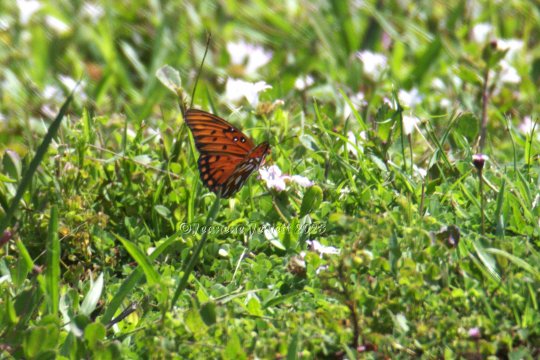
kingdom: Animalia
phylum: Arthropoda
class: Insecta
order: Lepidoptera
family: Nymphalidae
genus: Dione
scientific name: Dione vanillae
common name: Gulf Fritillary
